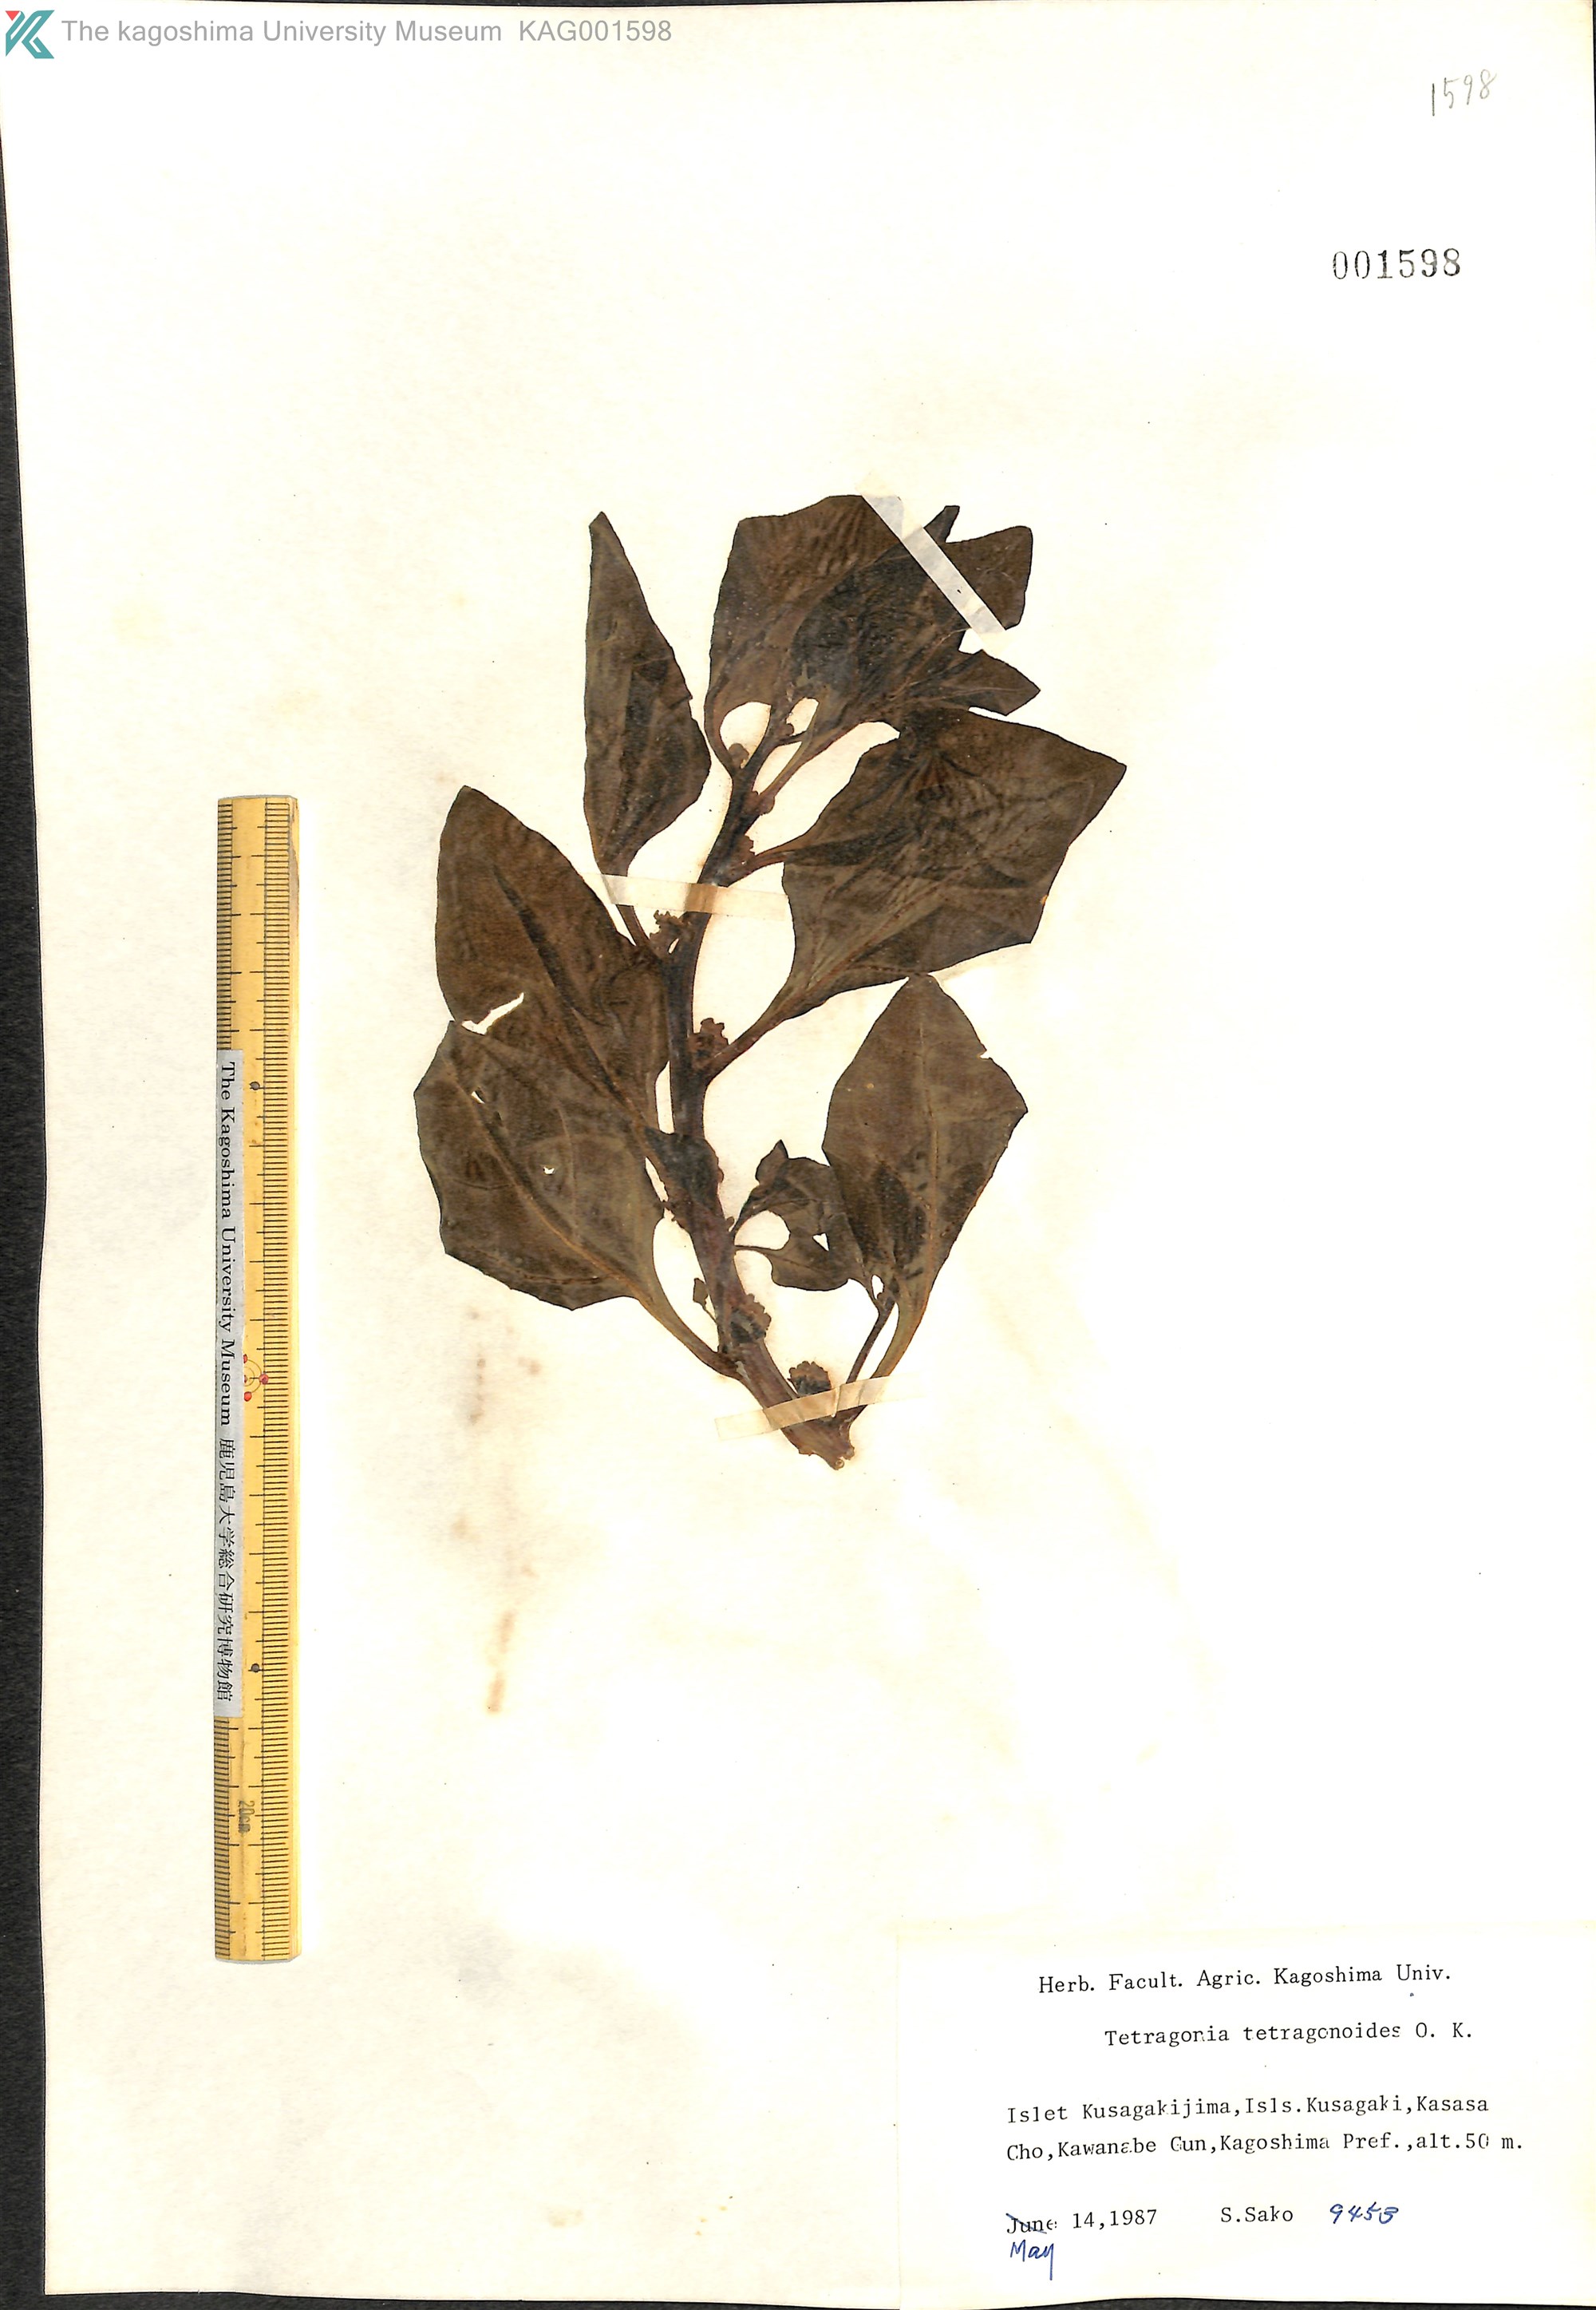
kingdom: Plantae
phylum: Tracheophyta
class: Magnoliopsida
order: Caryophyllales
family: Aizoaceae
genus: Tetragonia
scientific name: Tetragonia tetragonoides
